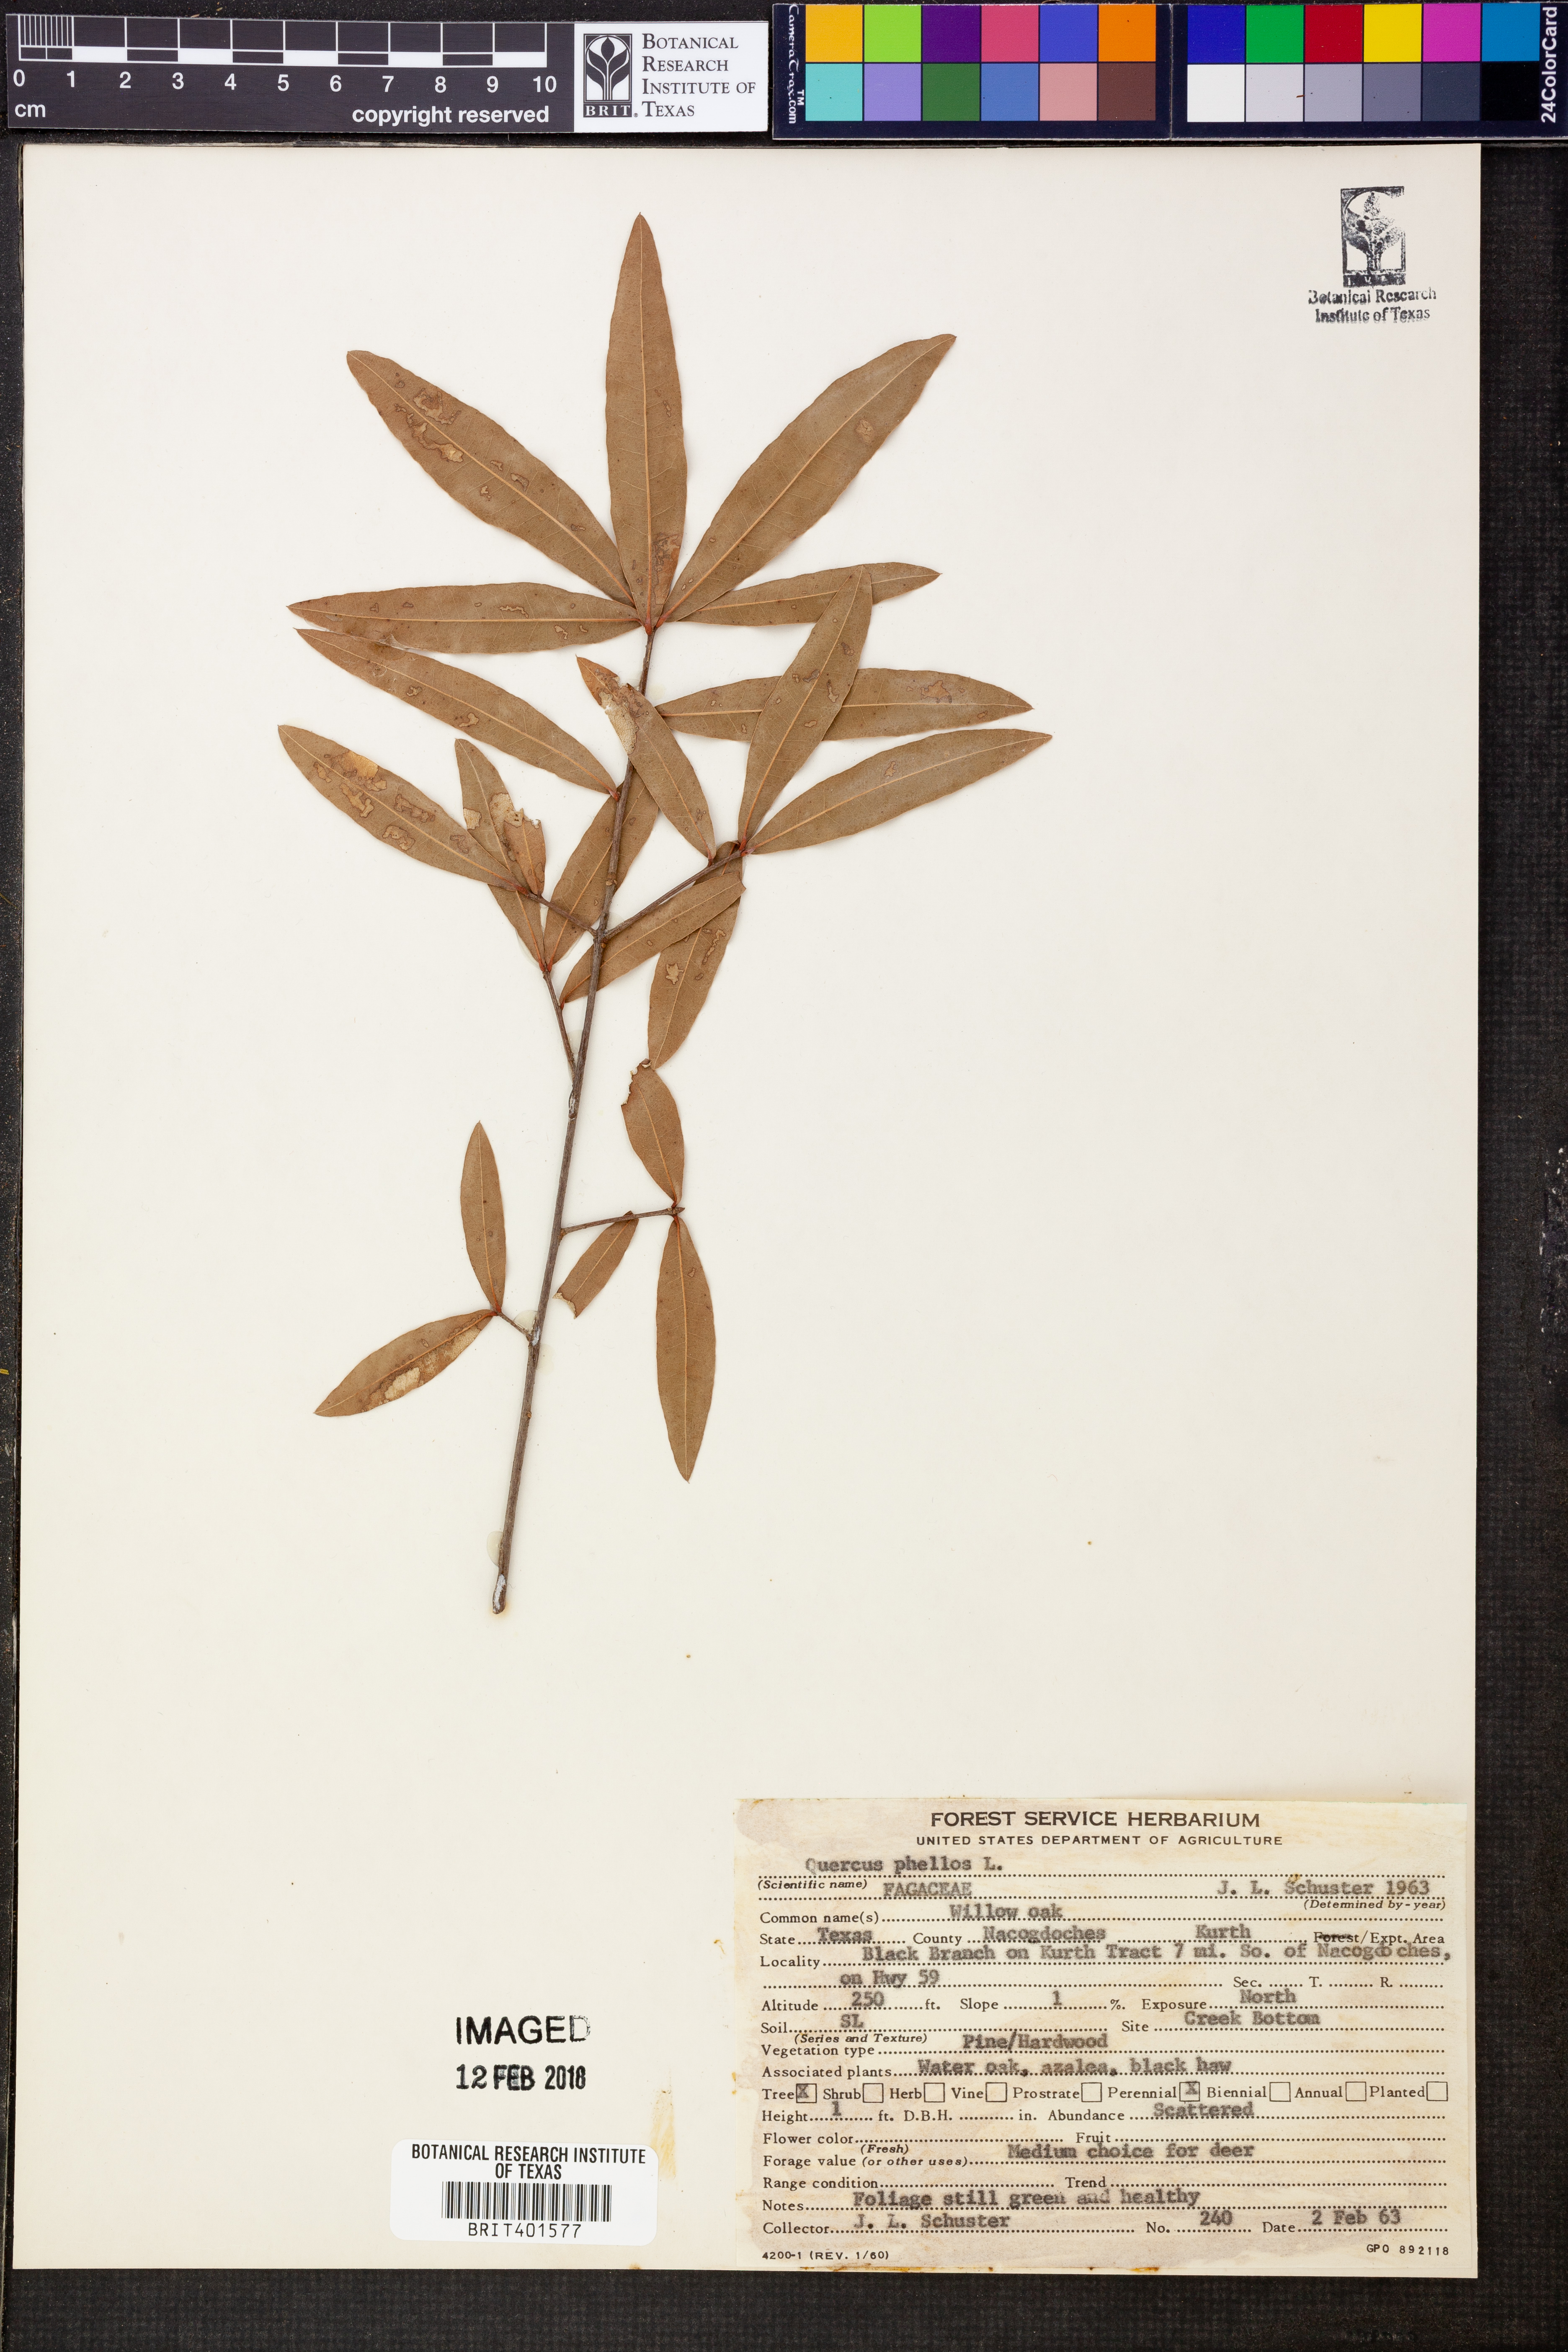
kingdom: Plantae
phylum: Tracheophyta
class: Magnoliopsida
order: Fagales
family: Fagaceae
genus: Quercus
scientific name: Quercus phellos
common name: Willow oak
